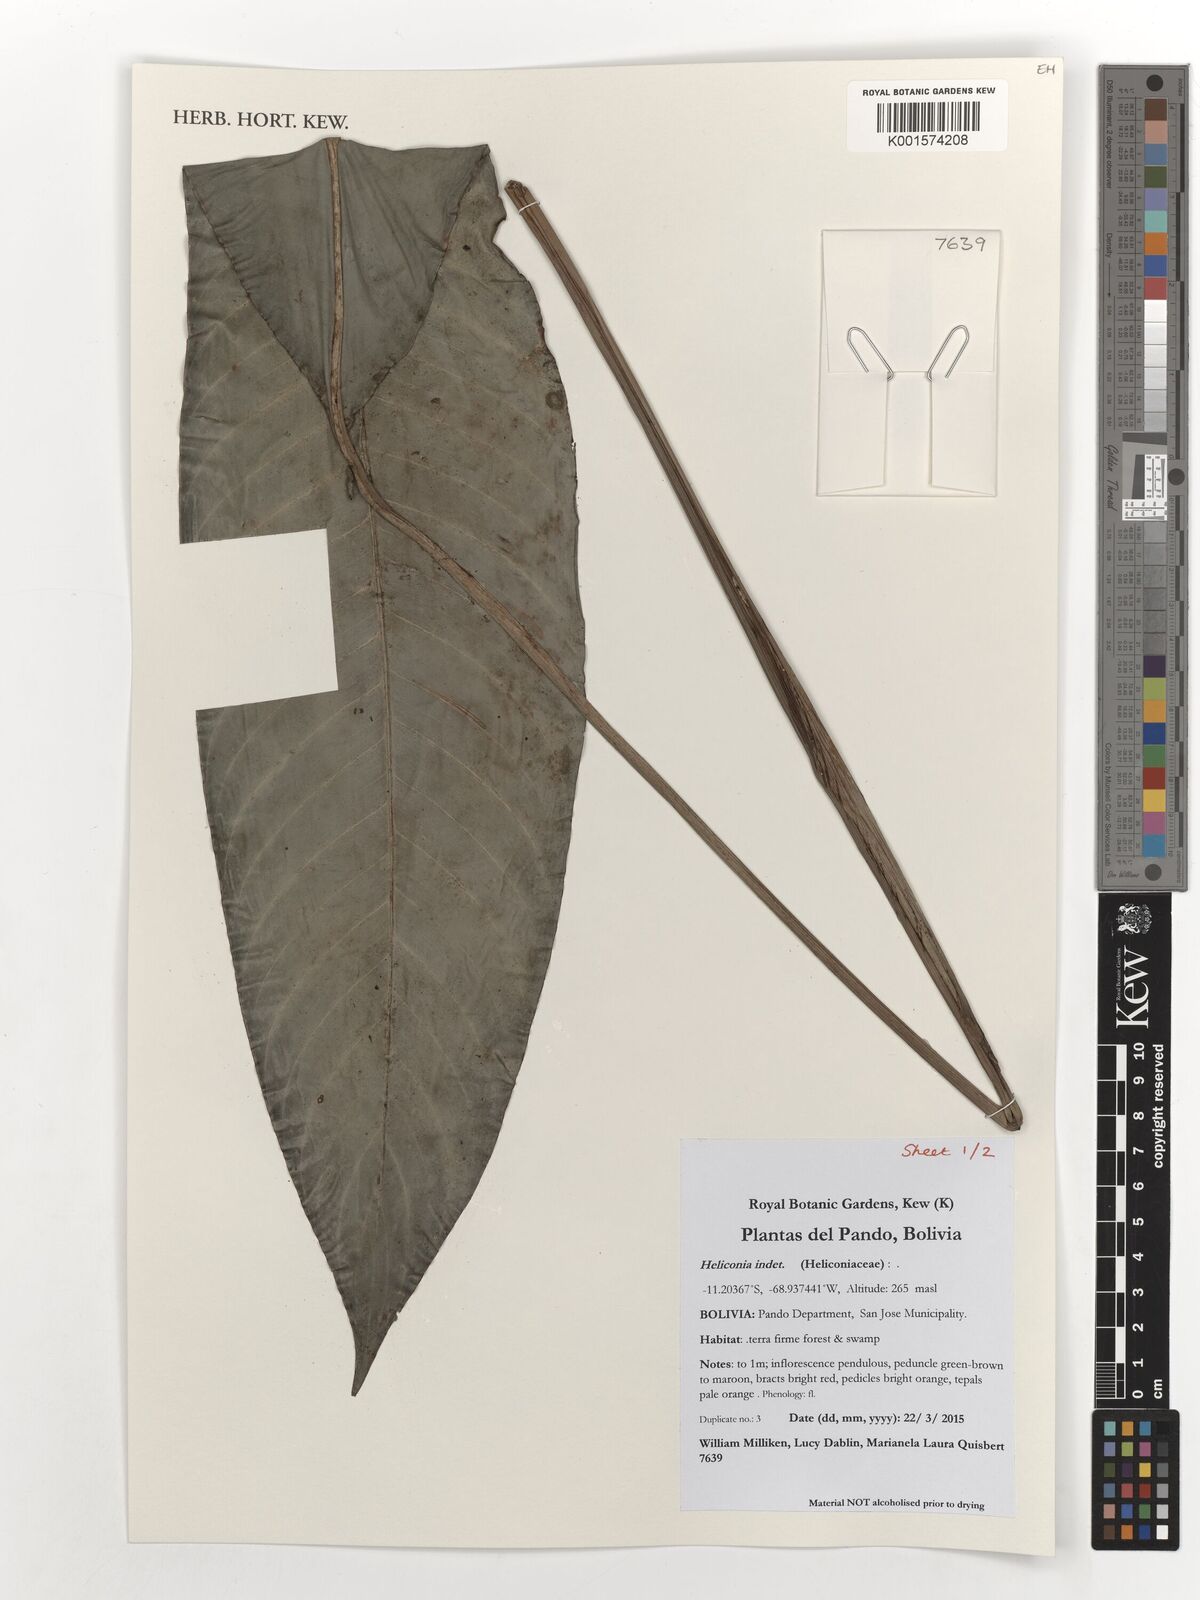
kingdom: Plantae
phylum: Tracheophyta
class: Liliopsida
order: Zingiberales
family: Heliconiaceae
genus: Heliconia
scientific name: Heliconia
